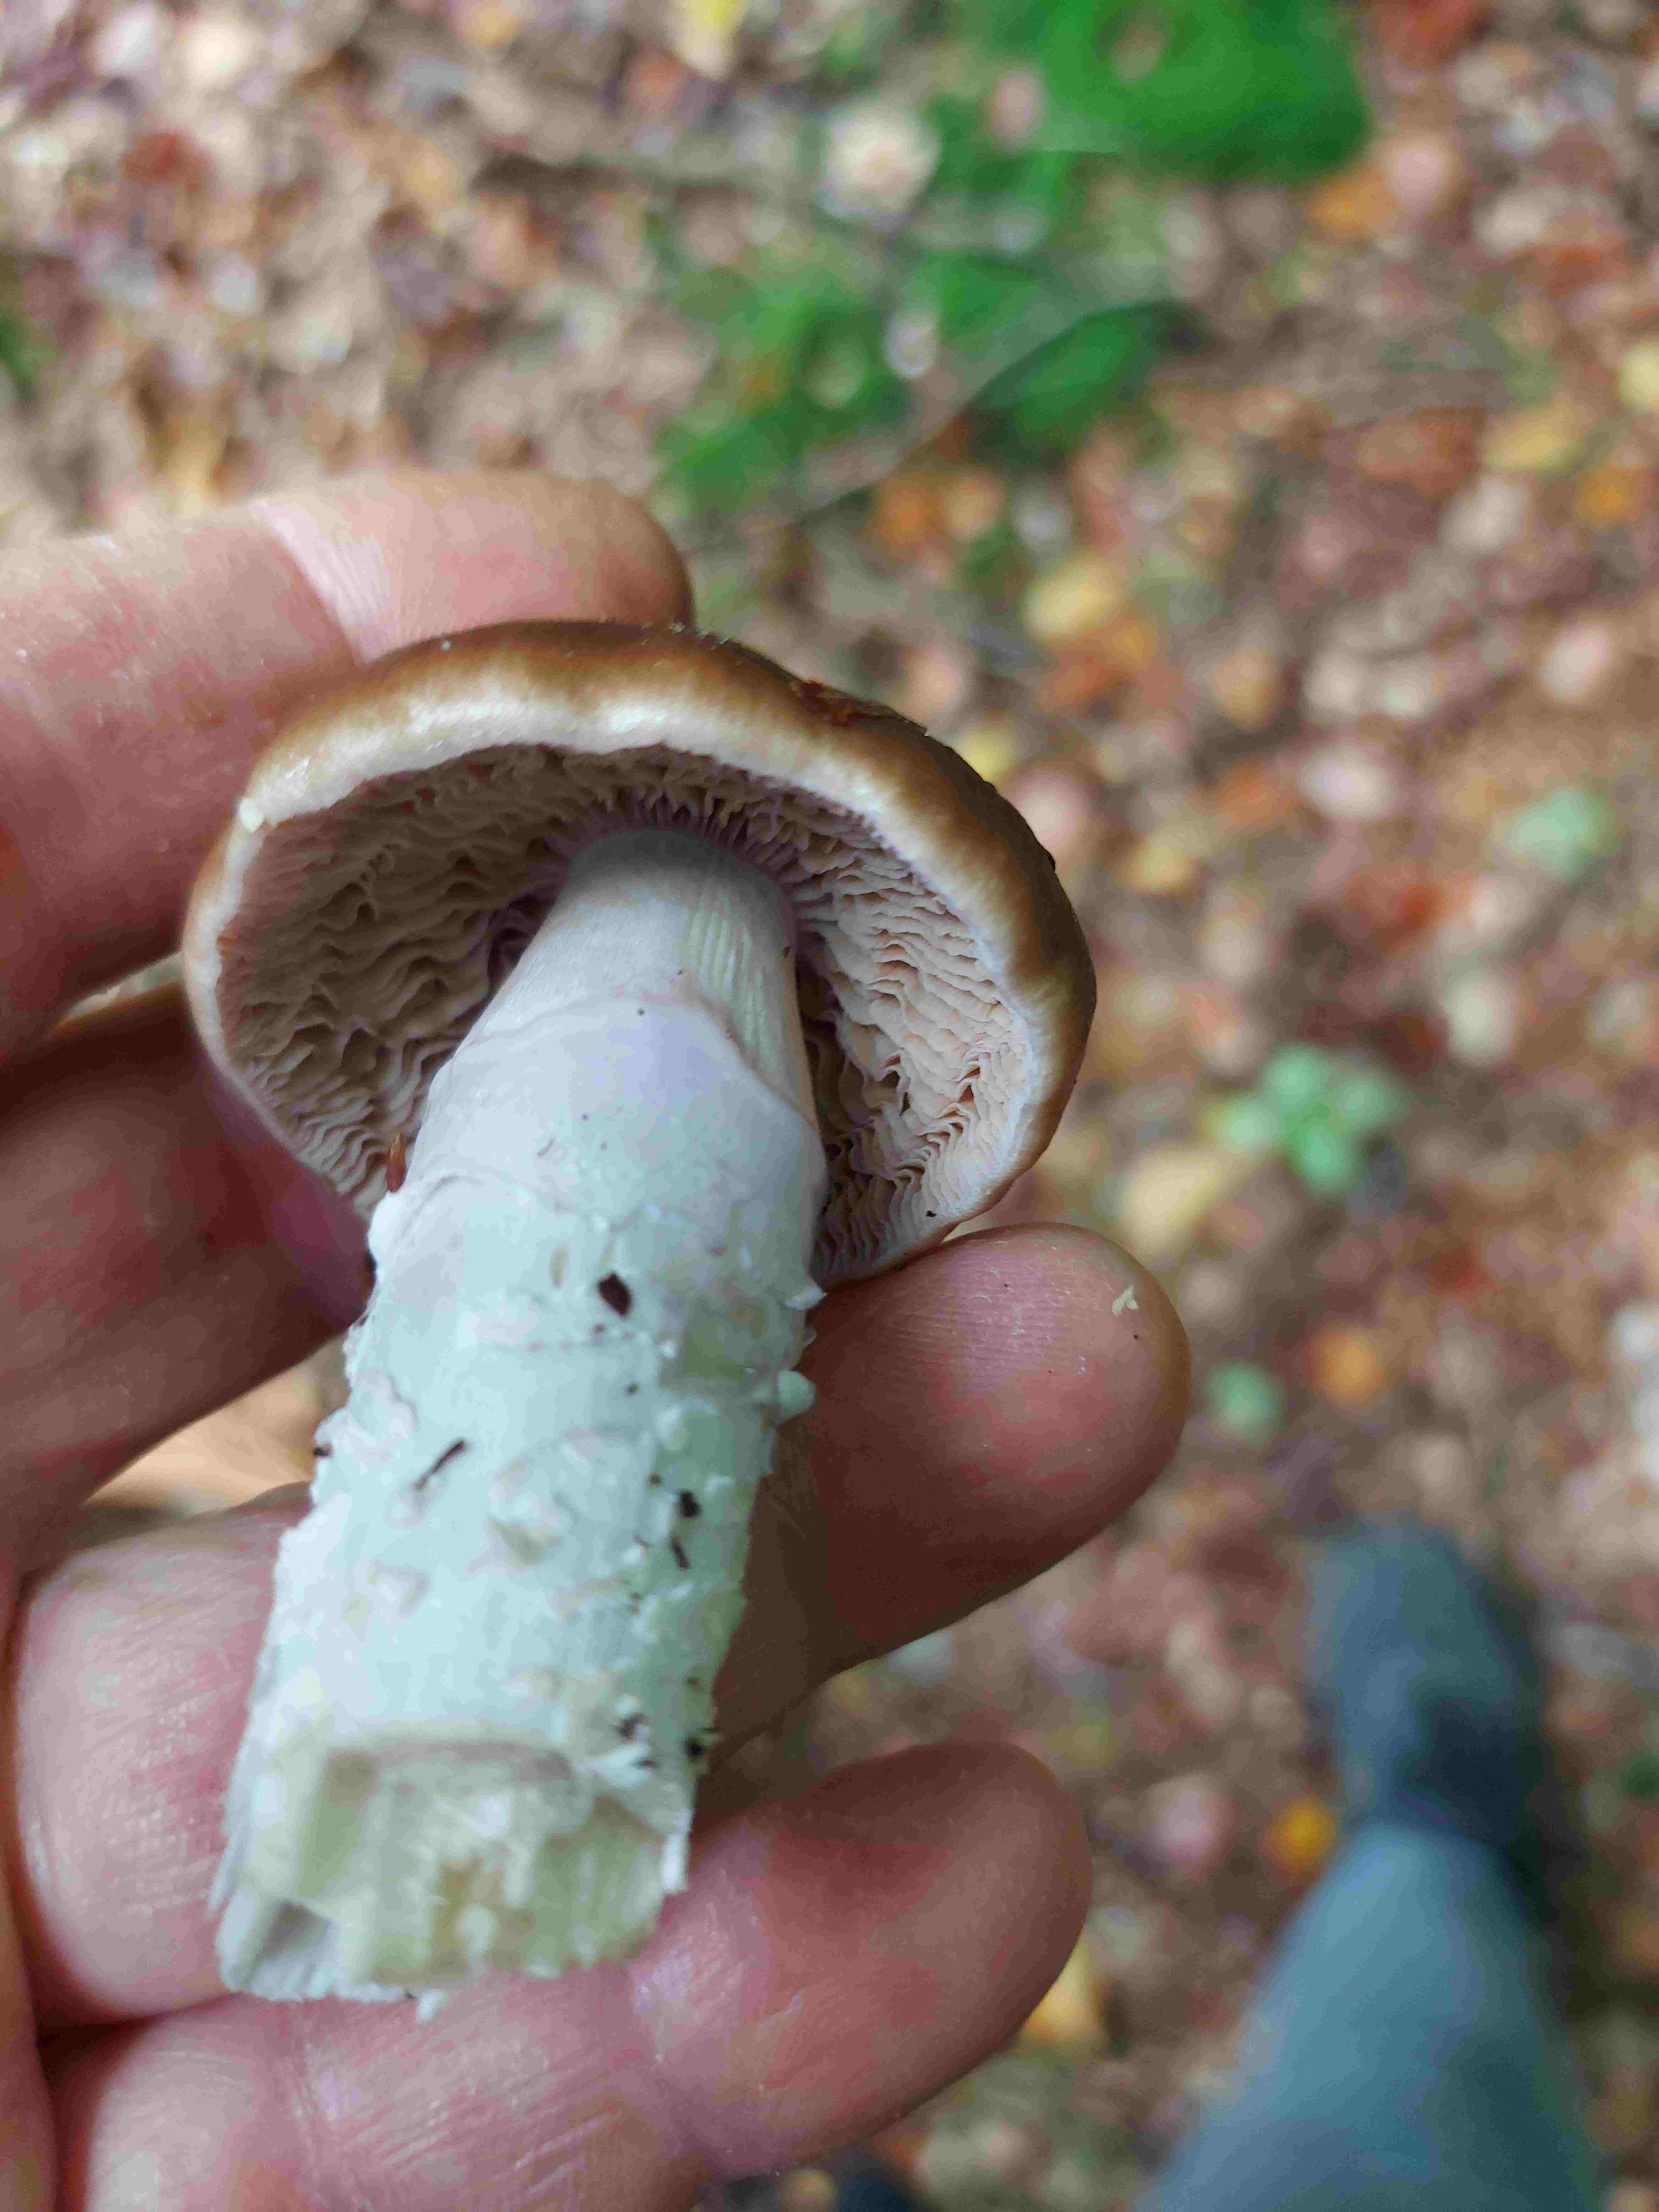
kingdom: Fungi
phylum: Basidiomycota
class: Agaricomycetes
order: Agaricales
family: Cortinariaceae
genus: Cortinarius
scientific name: Cortinarius elatior
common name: høj slørhat
